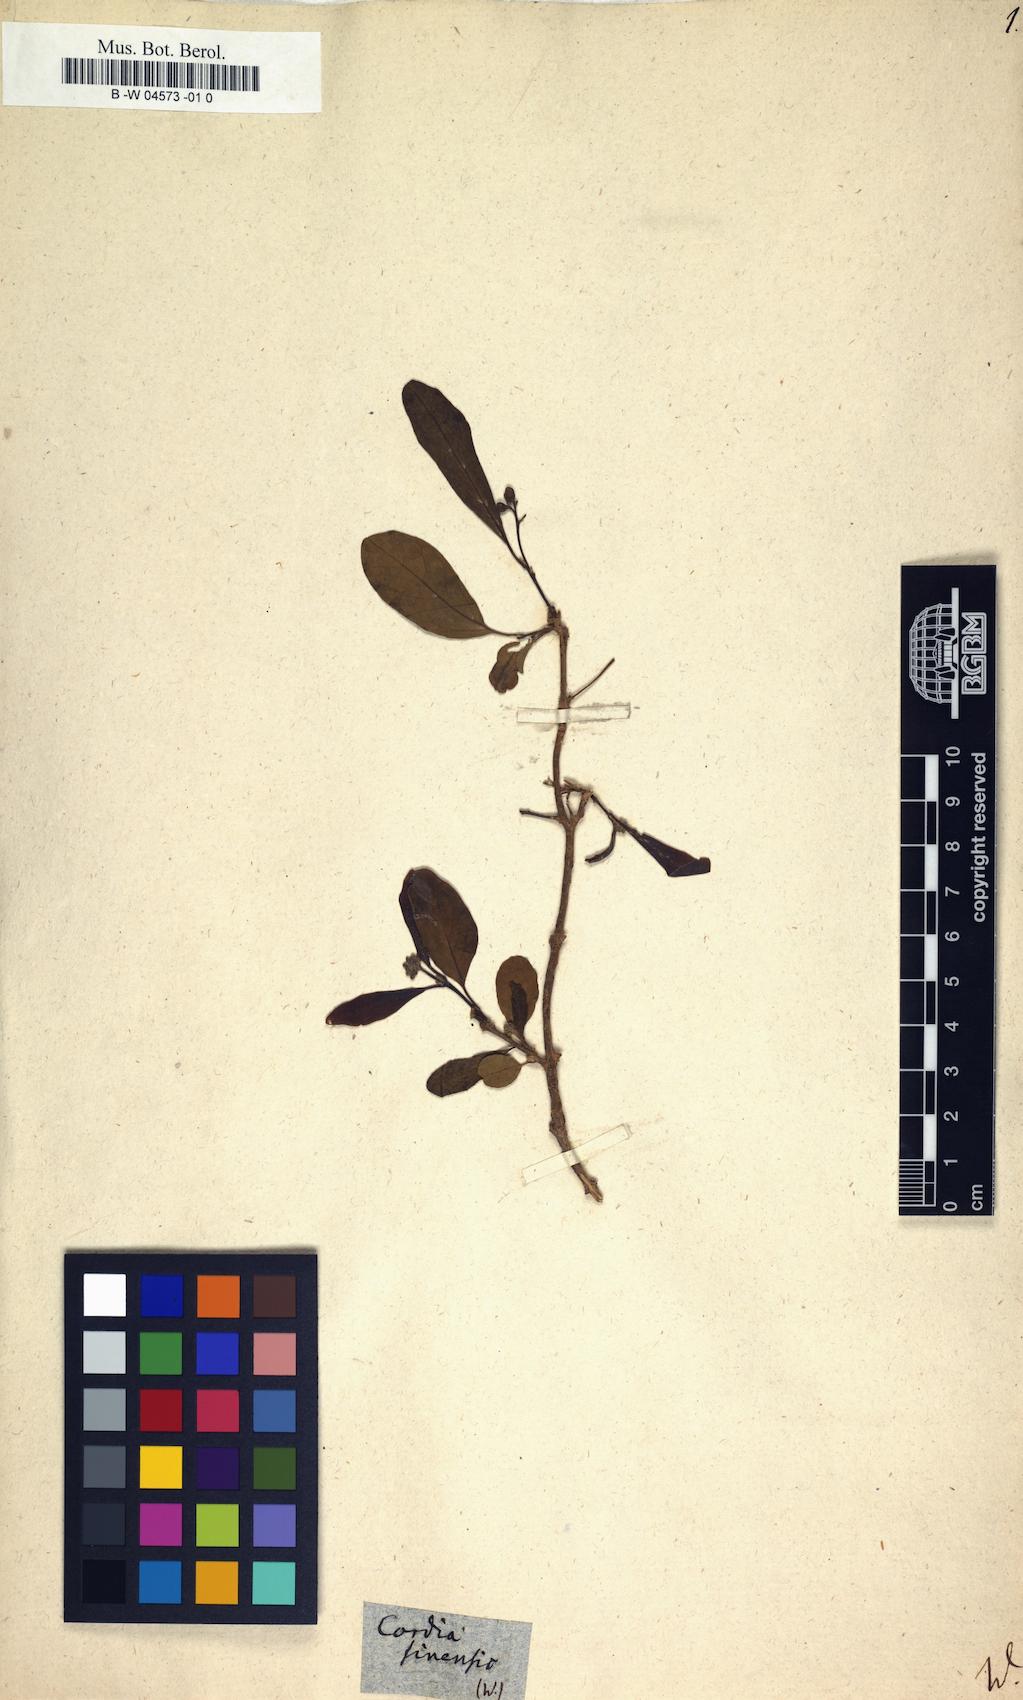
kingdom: Plantae
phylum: Tracheophyta
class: Magnoliopsida
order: Boraginales
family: Cordiaceae
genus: Cordia
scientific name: Cordia sinensis
